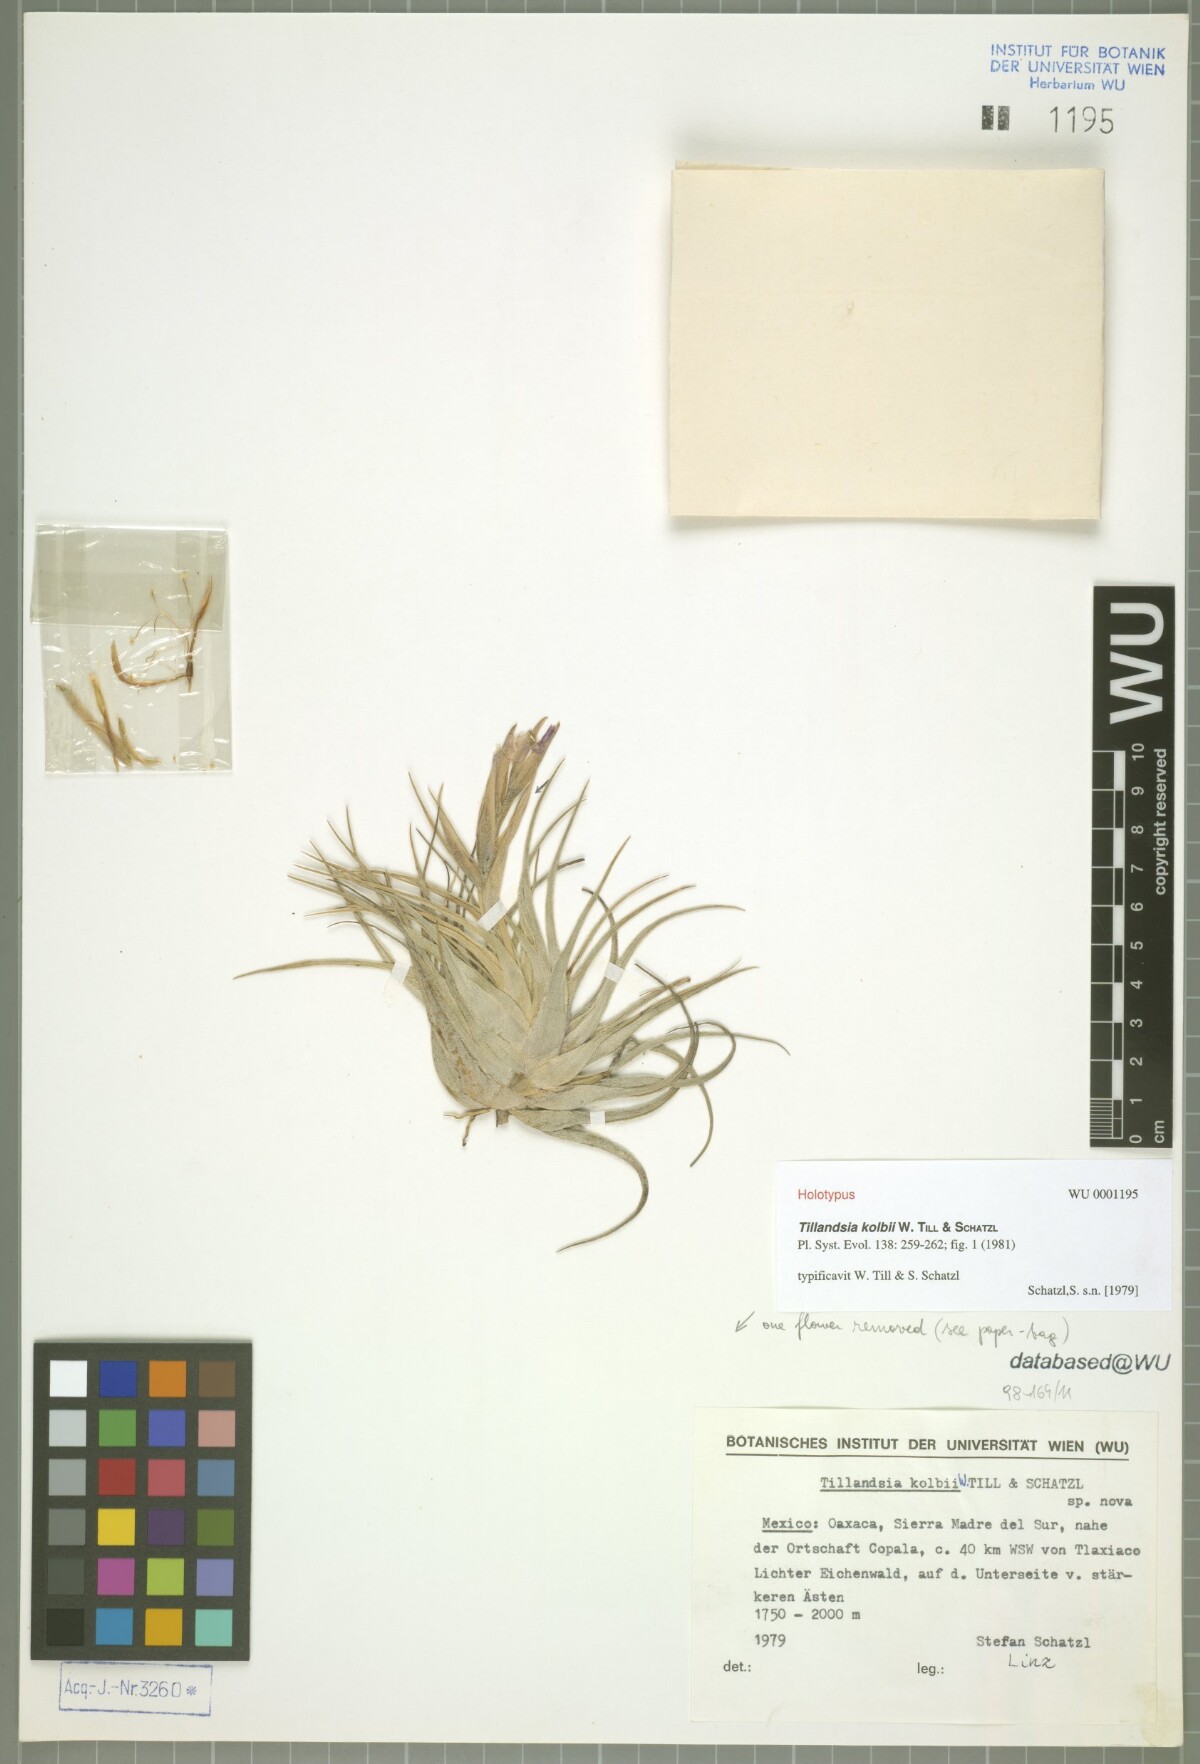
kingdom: Plantae
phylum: Tracheophyta
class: Liliopsida
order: Poales
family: Bromeliaceae
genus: Tillandsia
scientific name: Tillandsia kolbii
